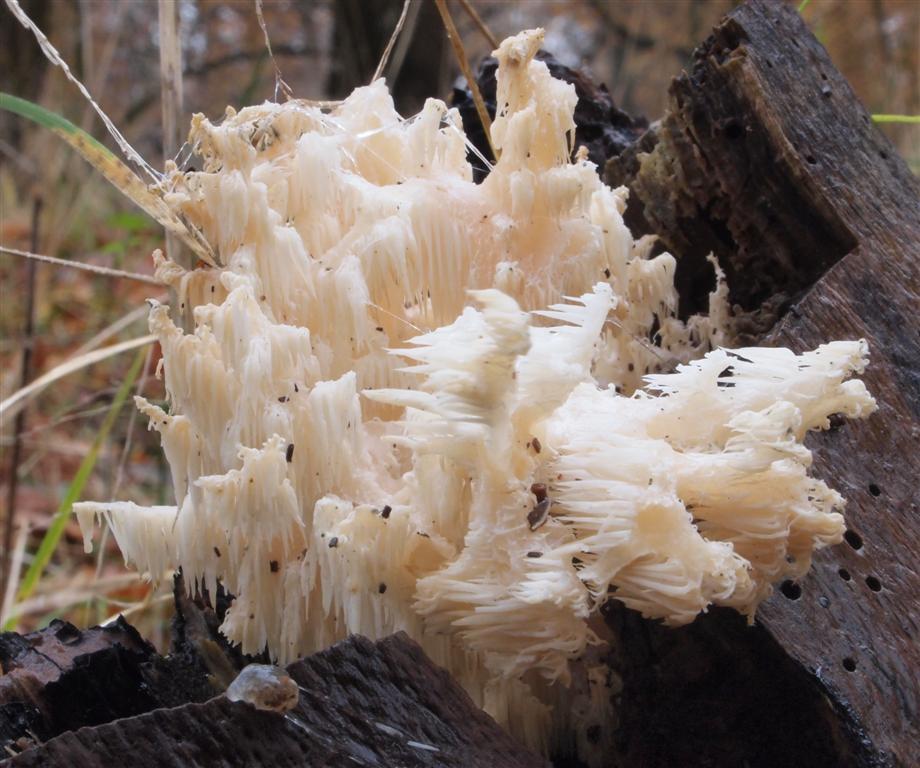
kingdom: Fungi
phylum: Basidiomycota
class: Agaricomycetes
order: Russulales
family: Hericiaceae
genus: Hericium
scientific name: Hericium coralloides
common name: koralpigsvamp
